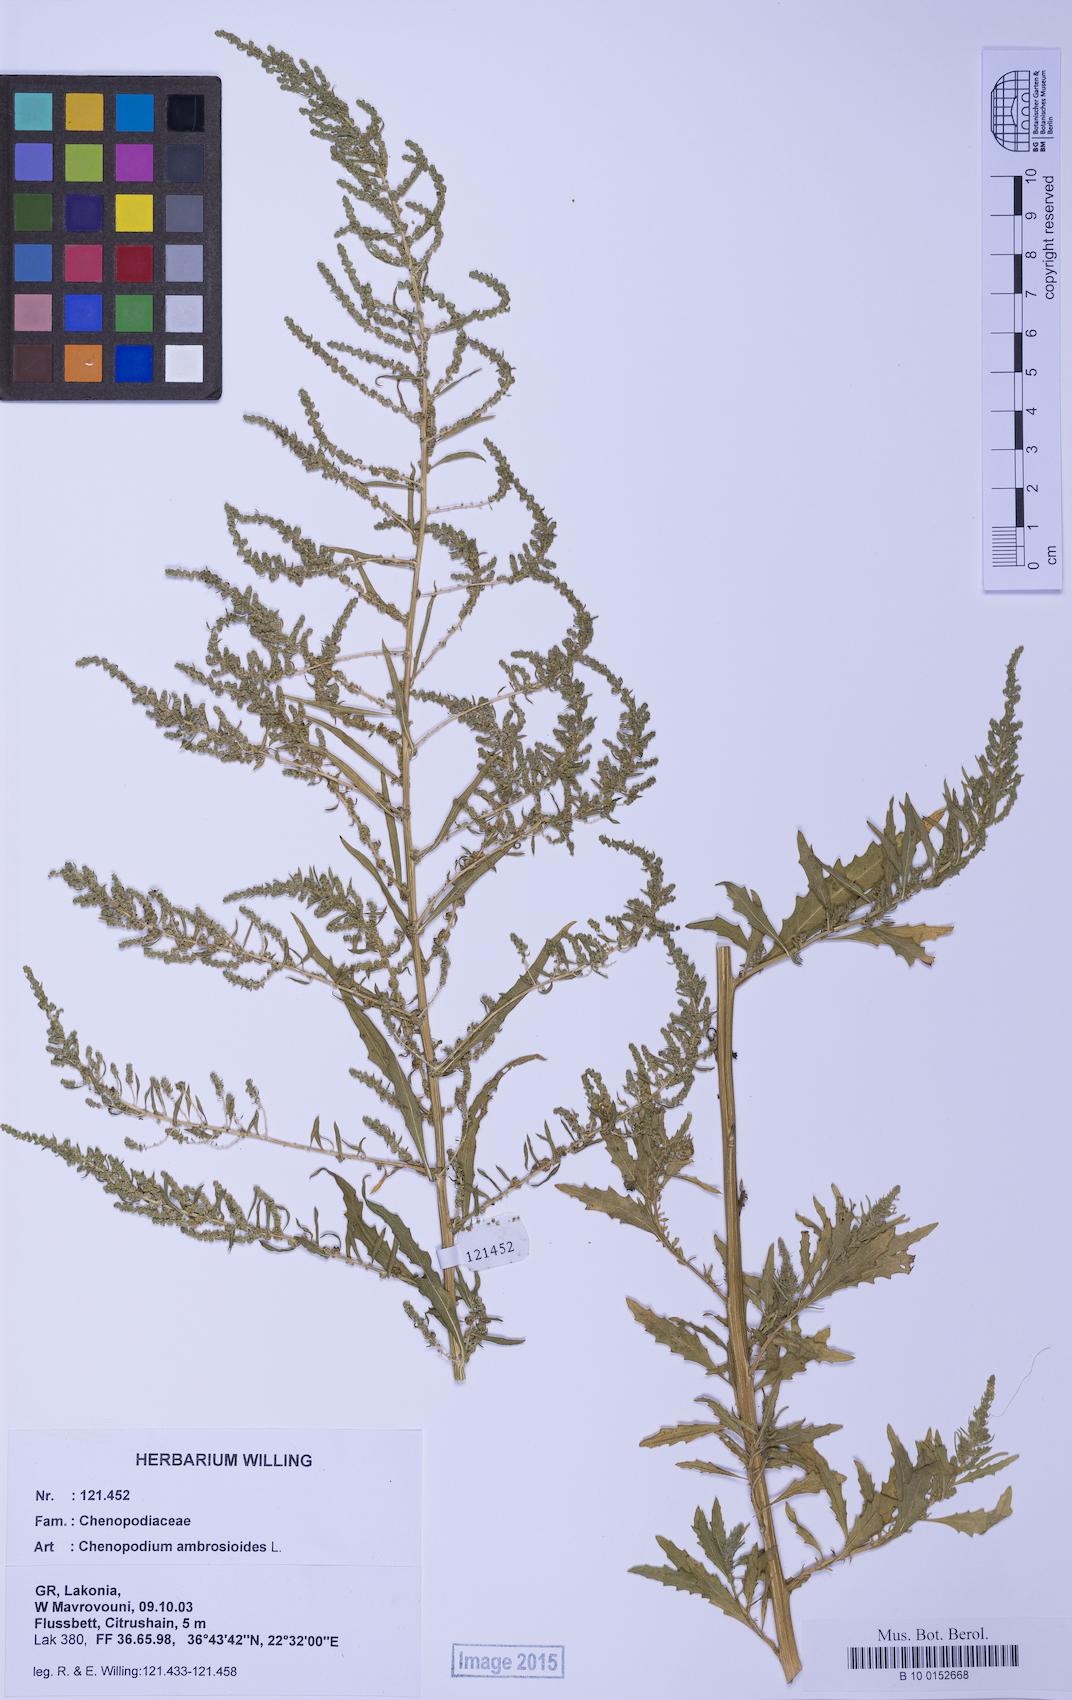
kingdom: Plantae
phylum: Tracheophyta
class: Magnoliopsida
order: Caryophyllales
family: Amaranthaceae
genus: Dysphania
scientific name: Dysphania ambrosioides
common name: Wormseed
